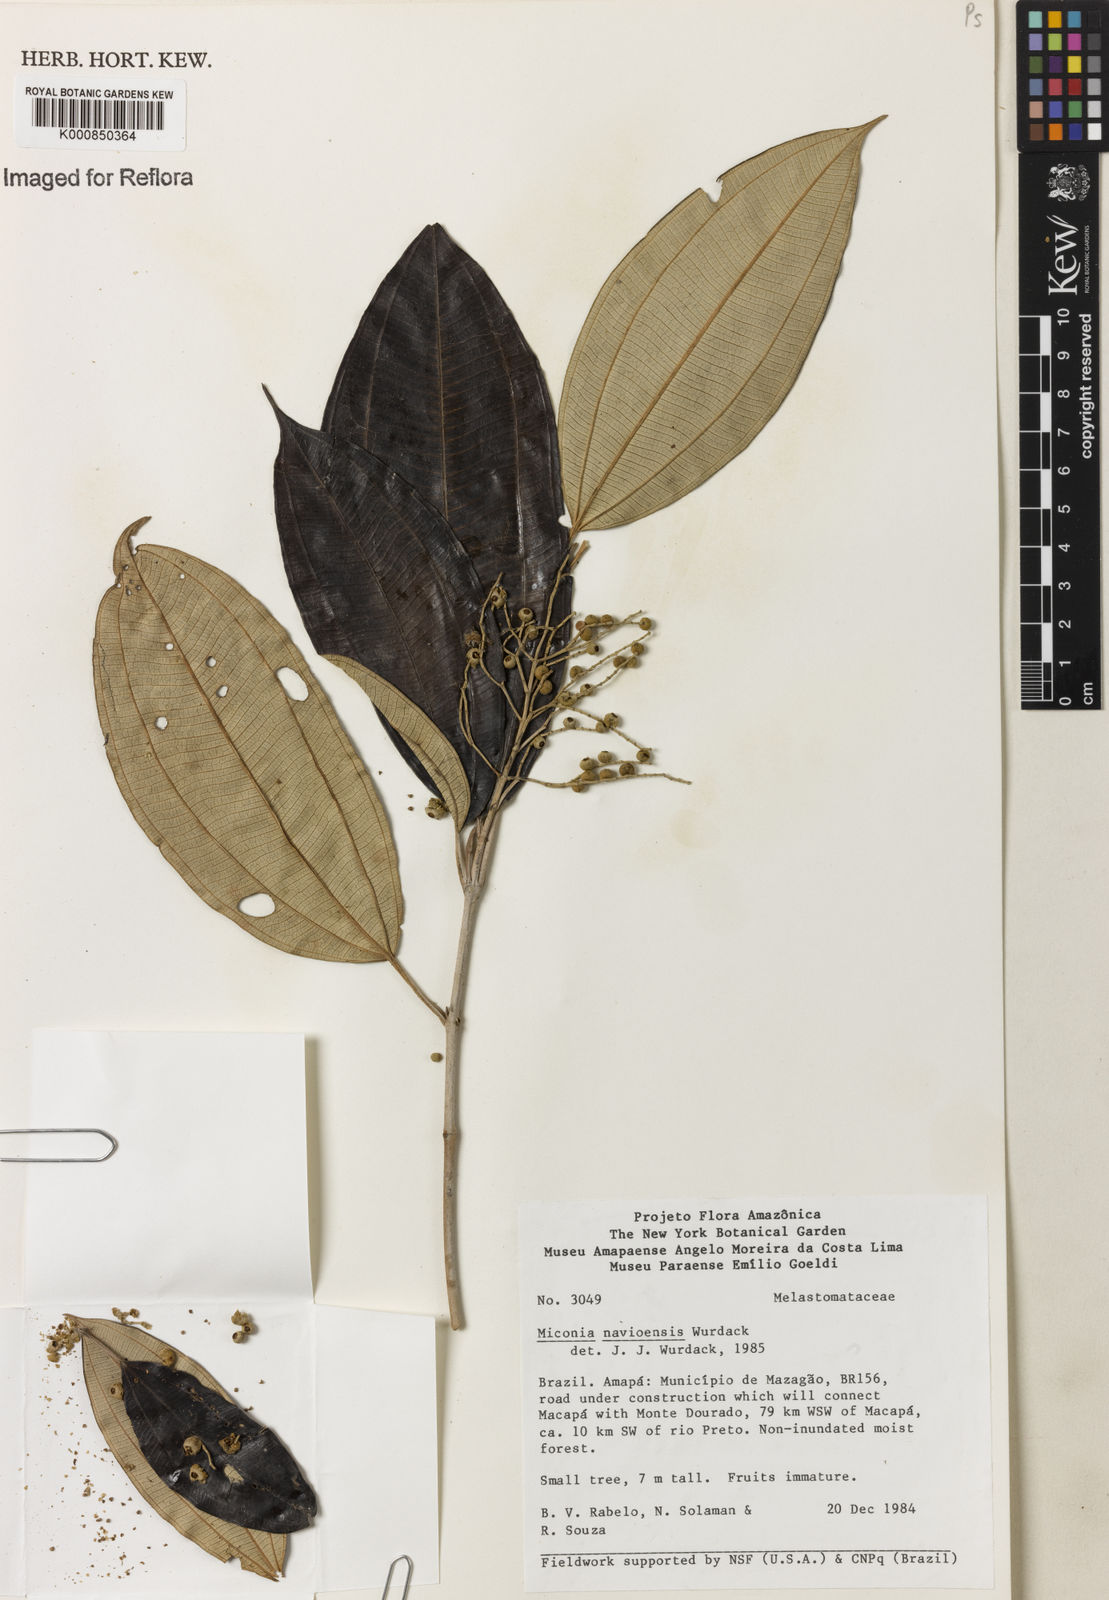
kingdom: Plantae
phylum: Tracheophyta
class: Magnoliopsida
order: Myrtales
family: Melastomataceae
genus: Miconia
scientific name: Miconia navioensis
